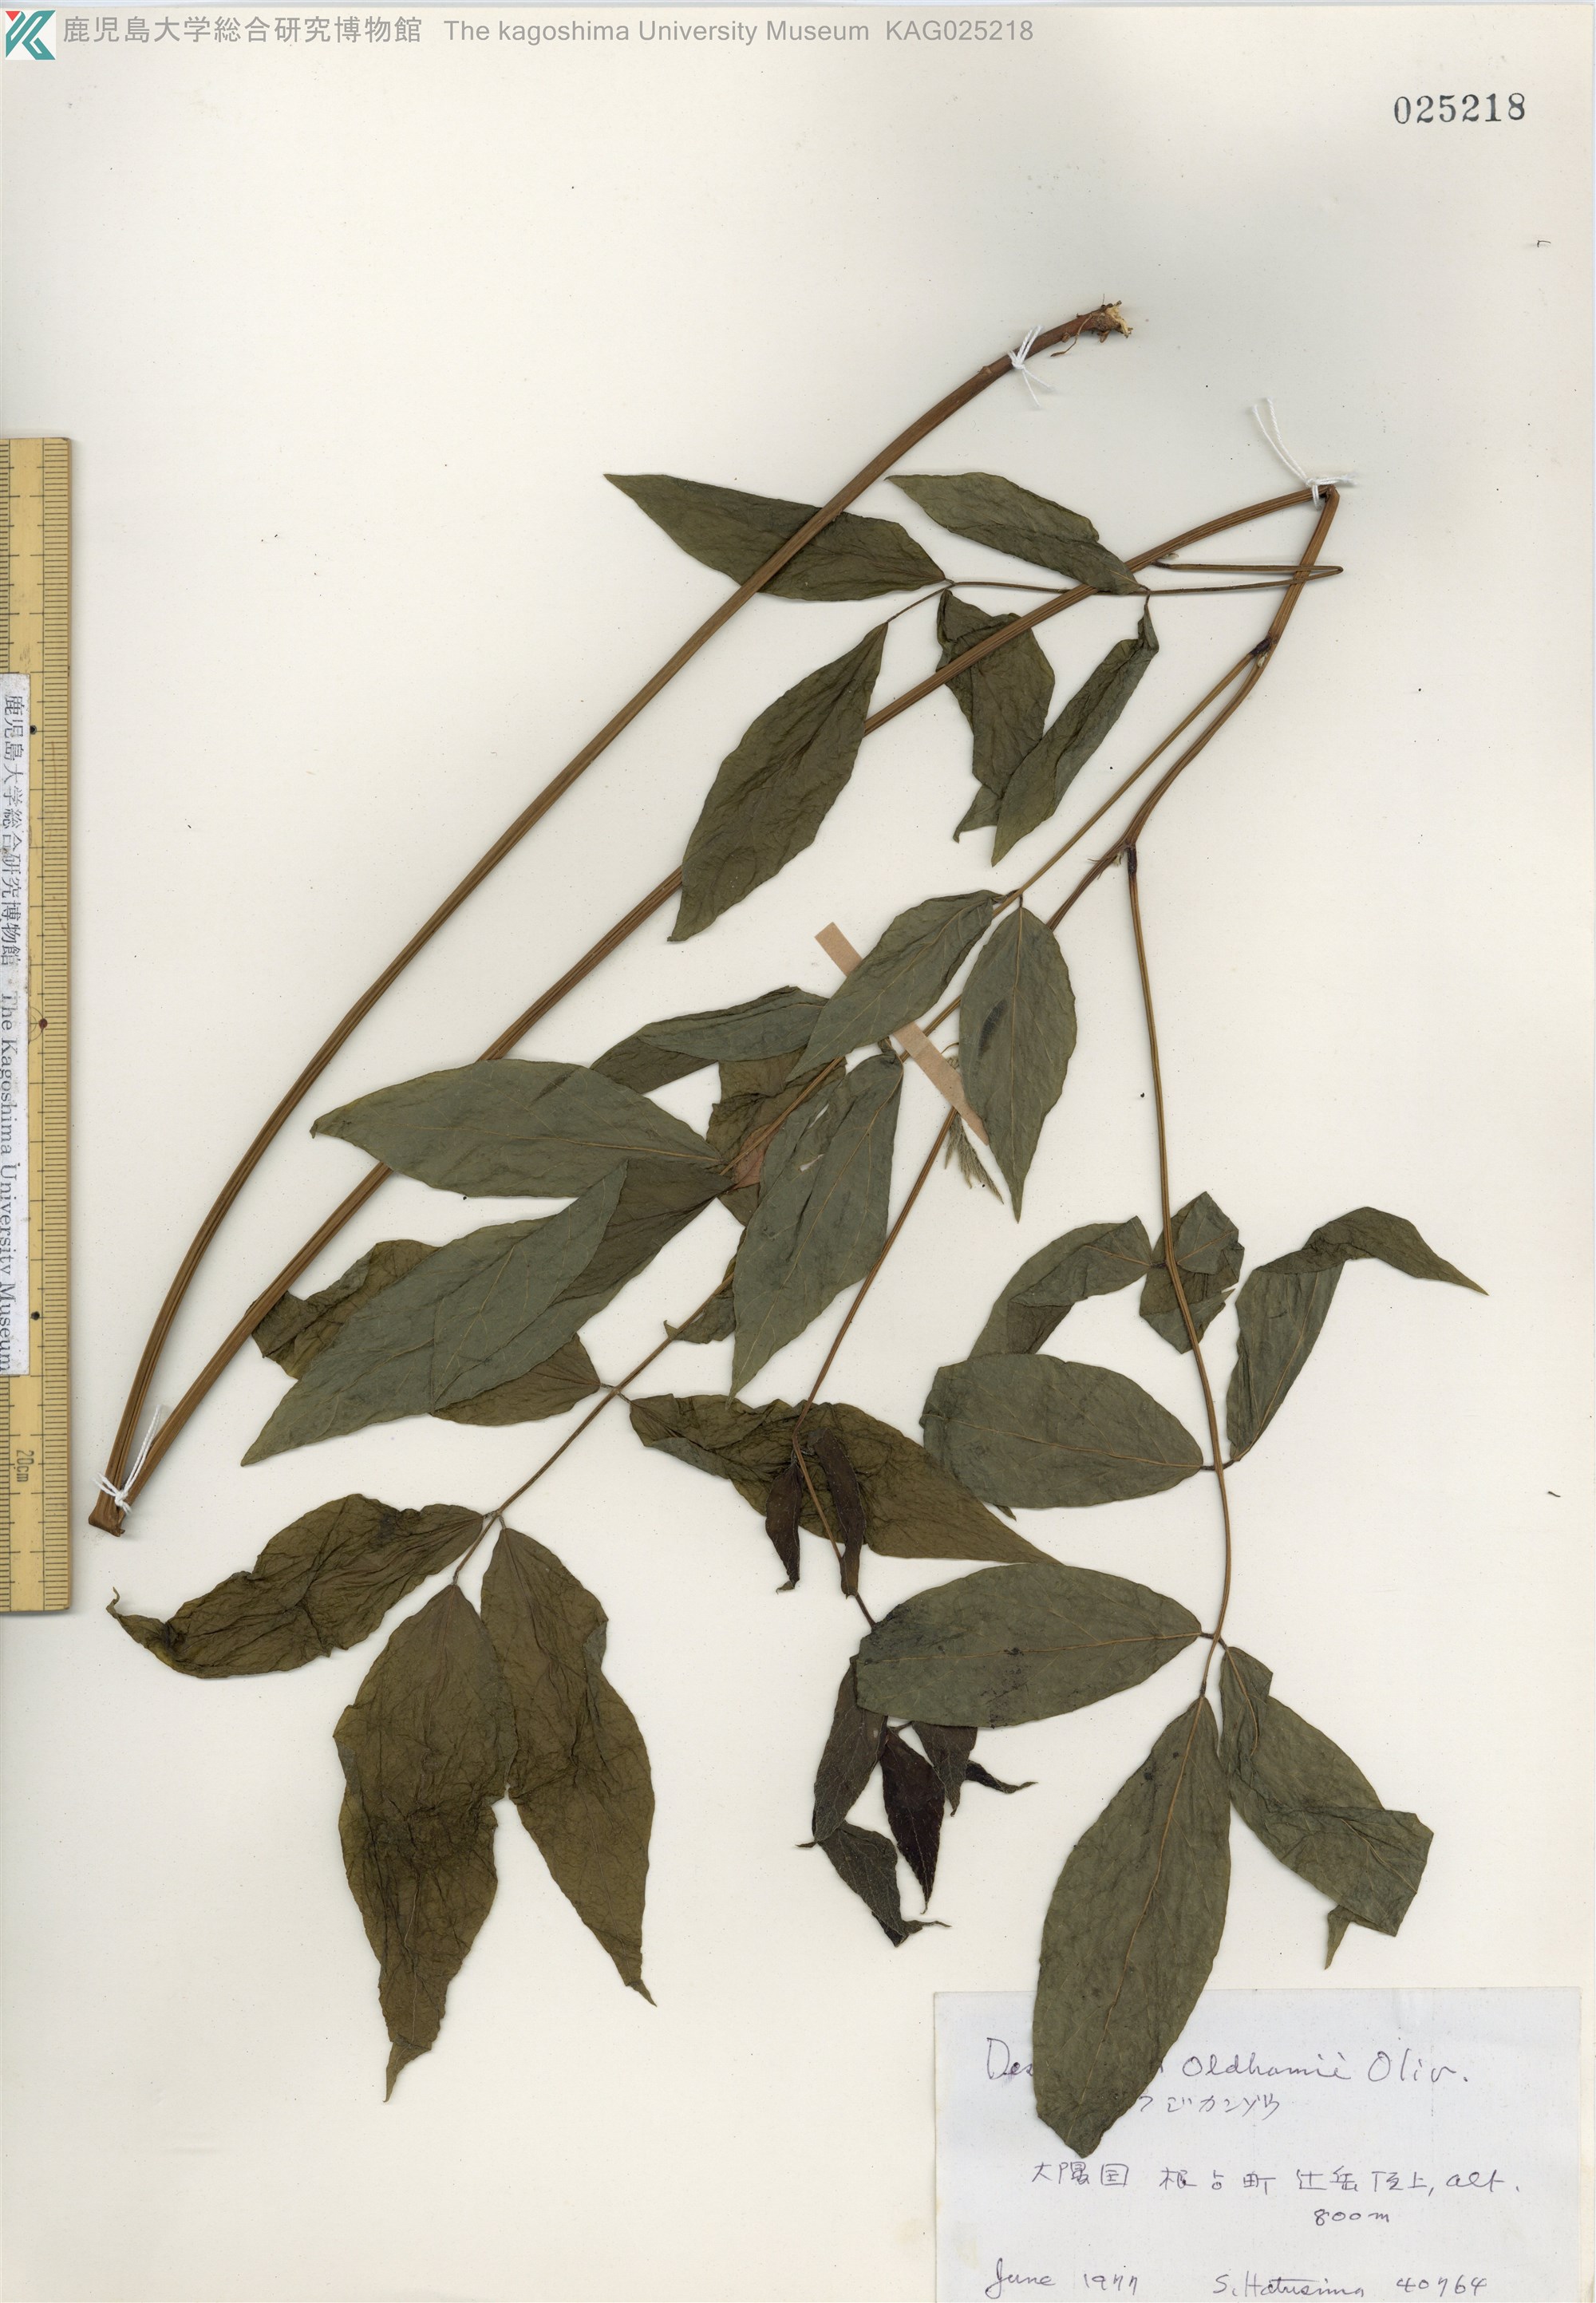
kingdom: Plantae
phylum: Tracheophyta
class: Magnoliopsida
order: Fabales
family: Fabaceae
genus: Hylodesmum
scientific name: Hylodesmum oldhamii
